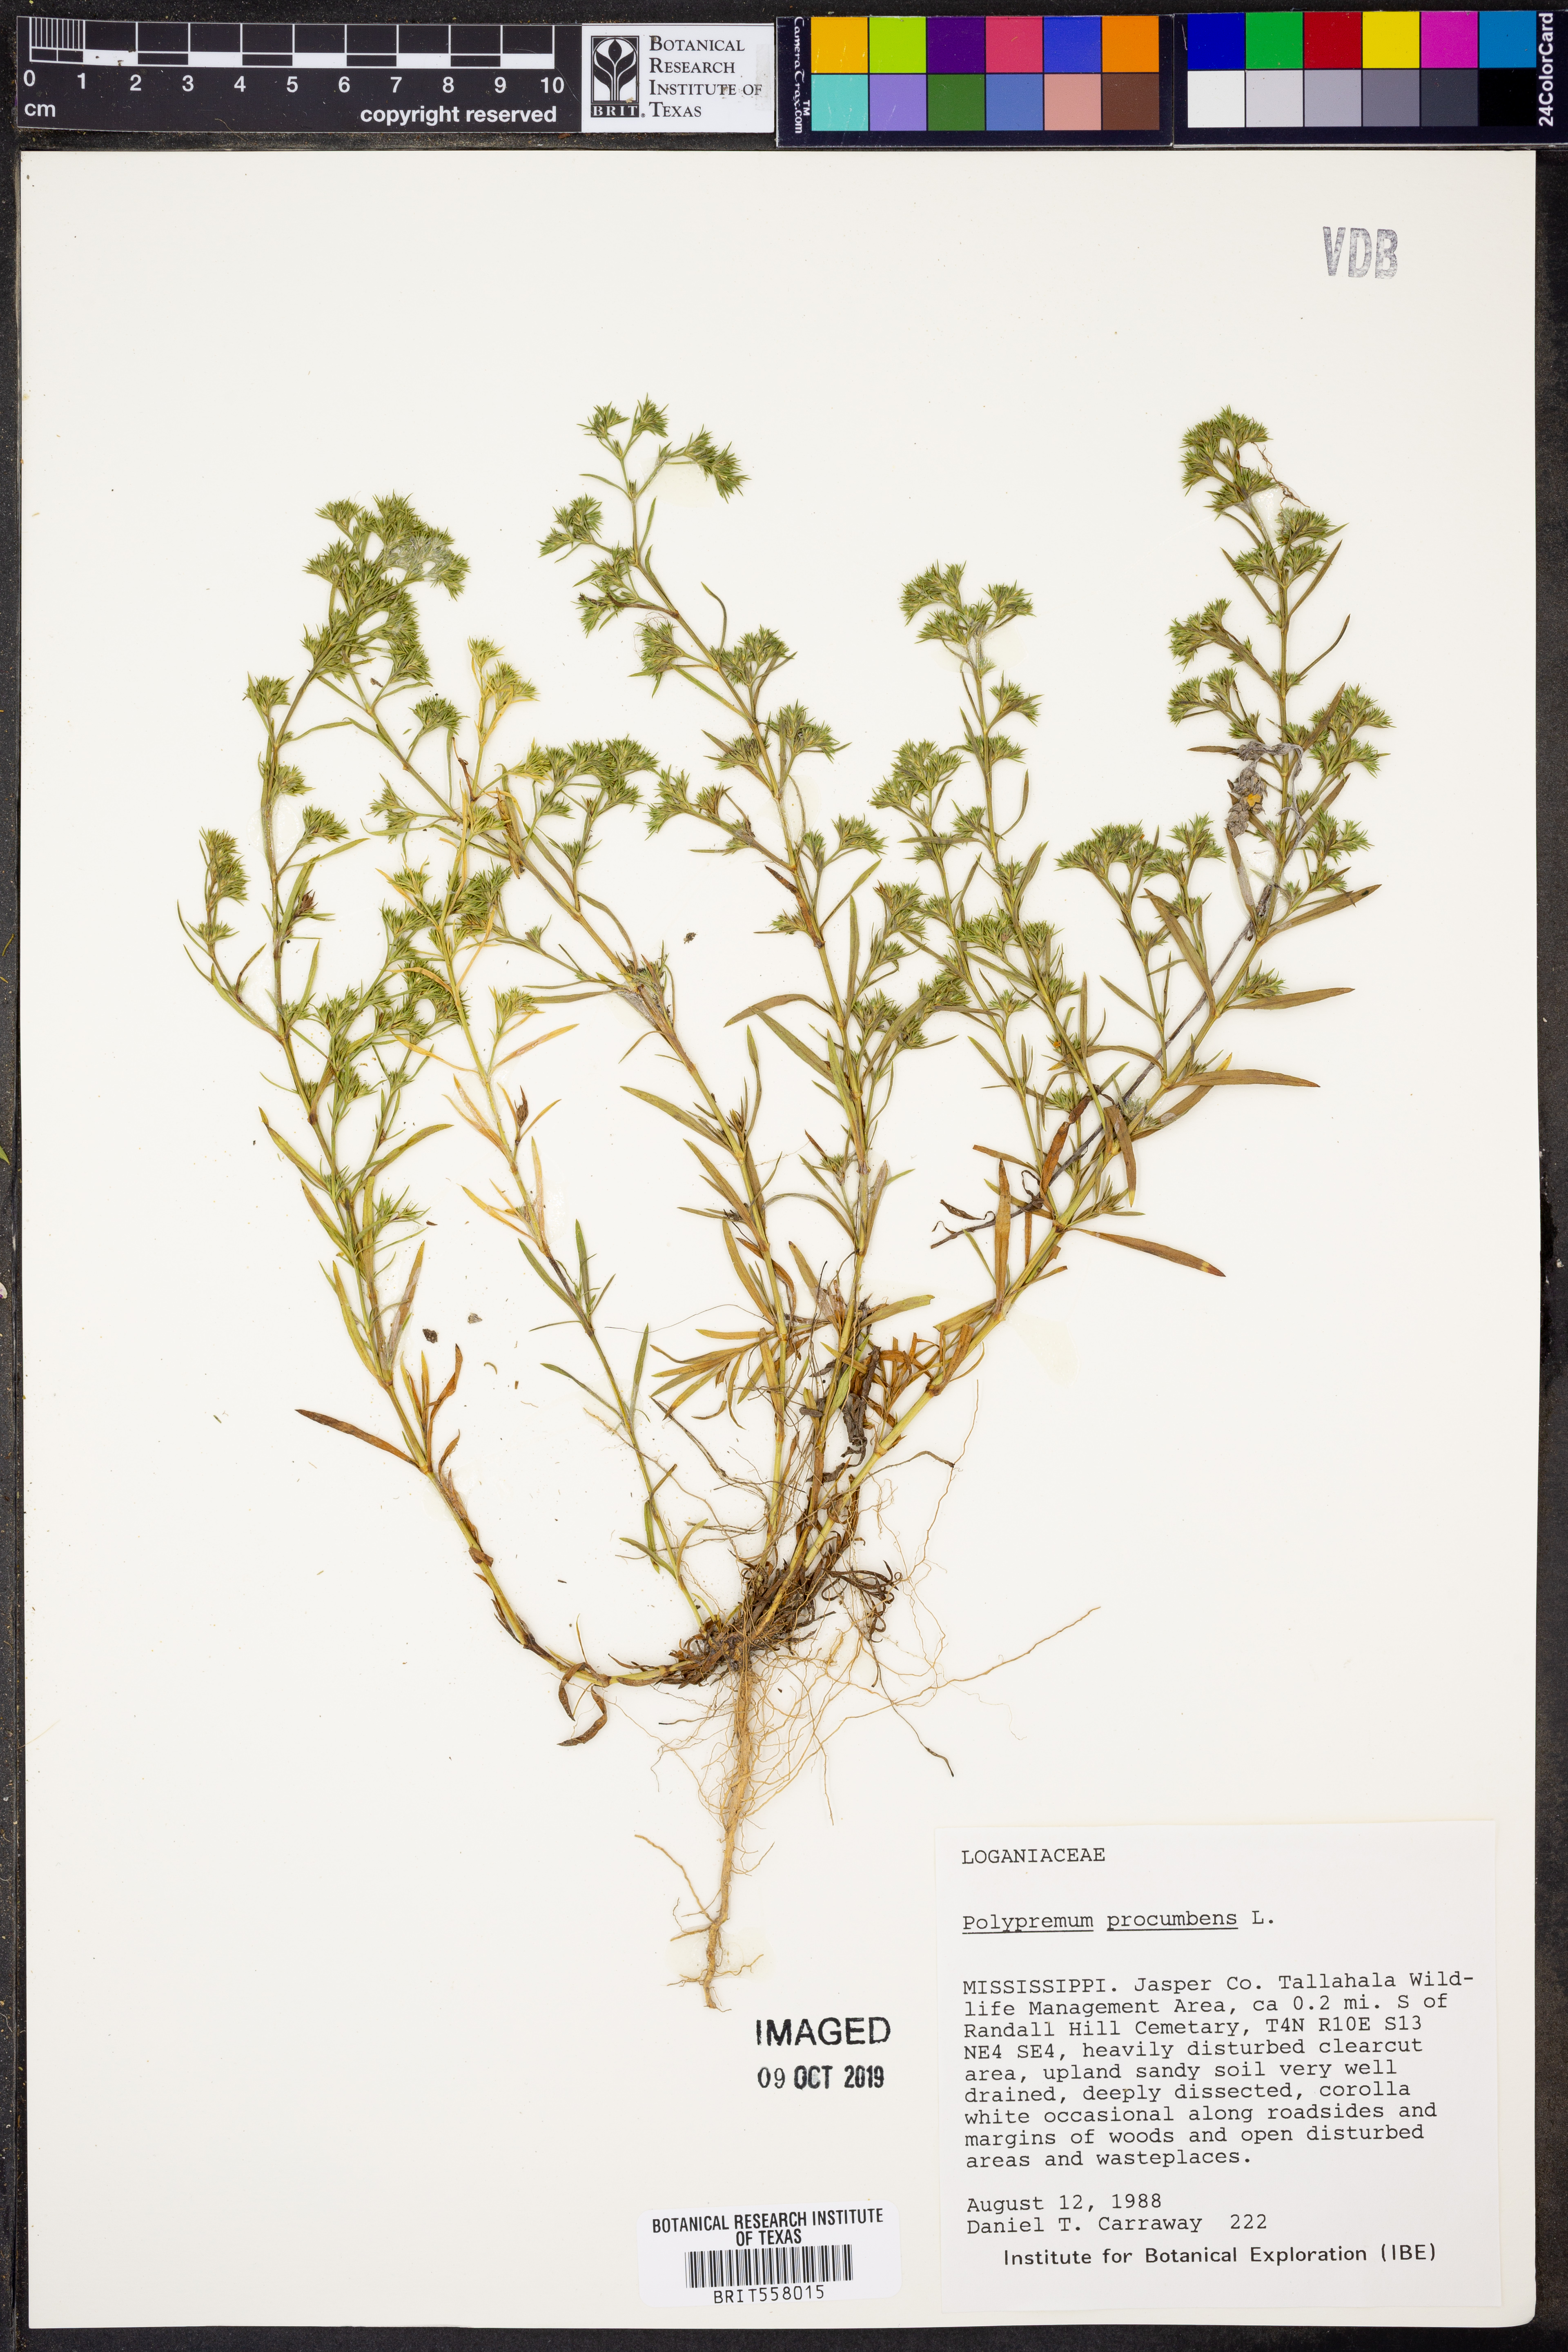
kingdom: Plantae
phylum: Tracheophyta
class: Magnoliopsida
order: Lamiales
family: Tetrachondraceae
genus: Polypremum
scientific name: Polypremum procumbens
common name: Juniper-leaf
